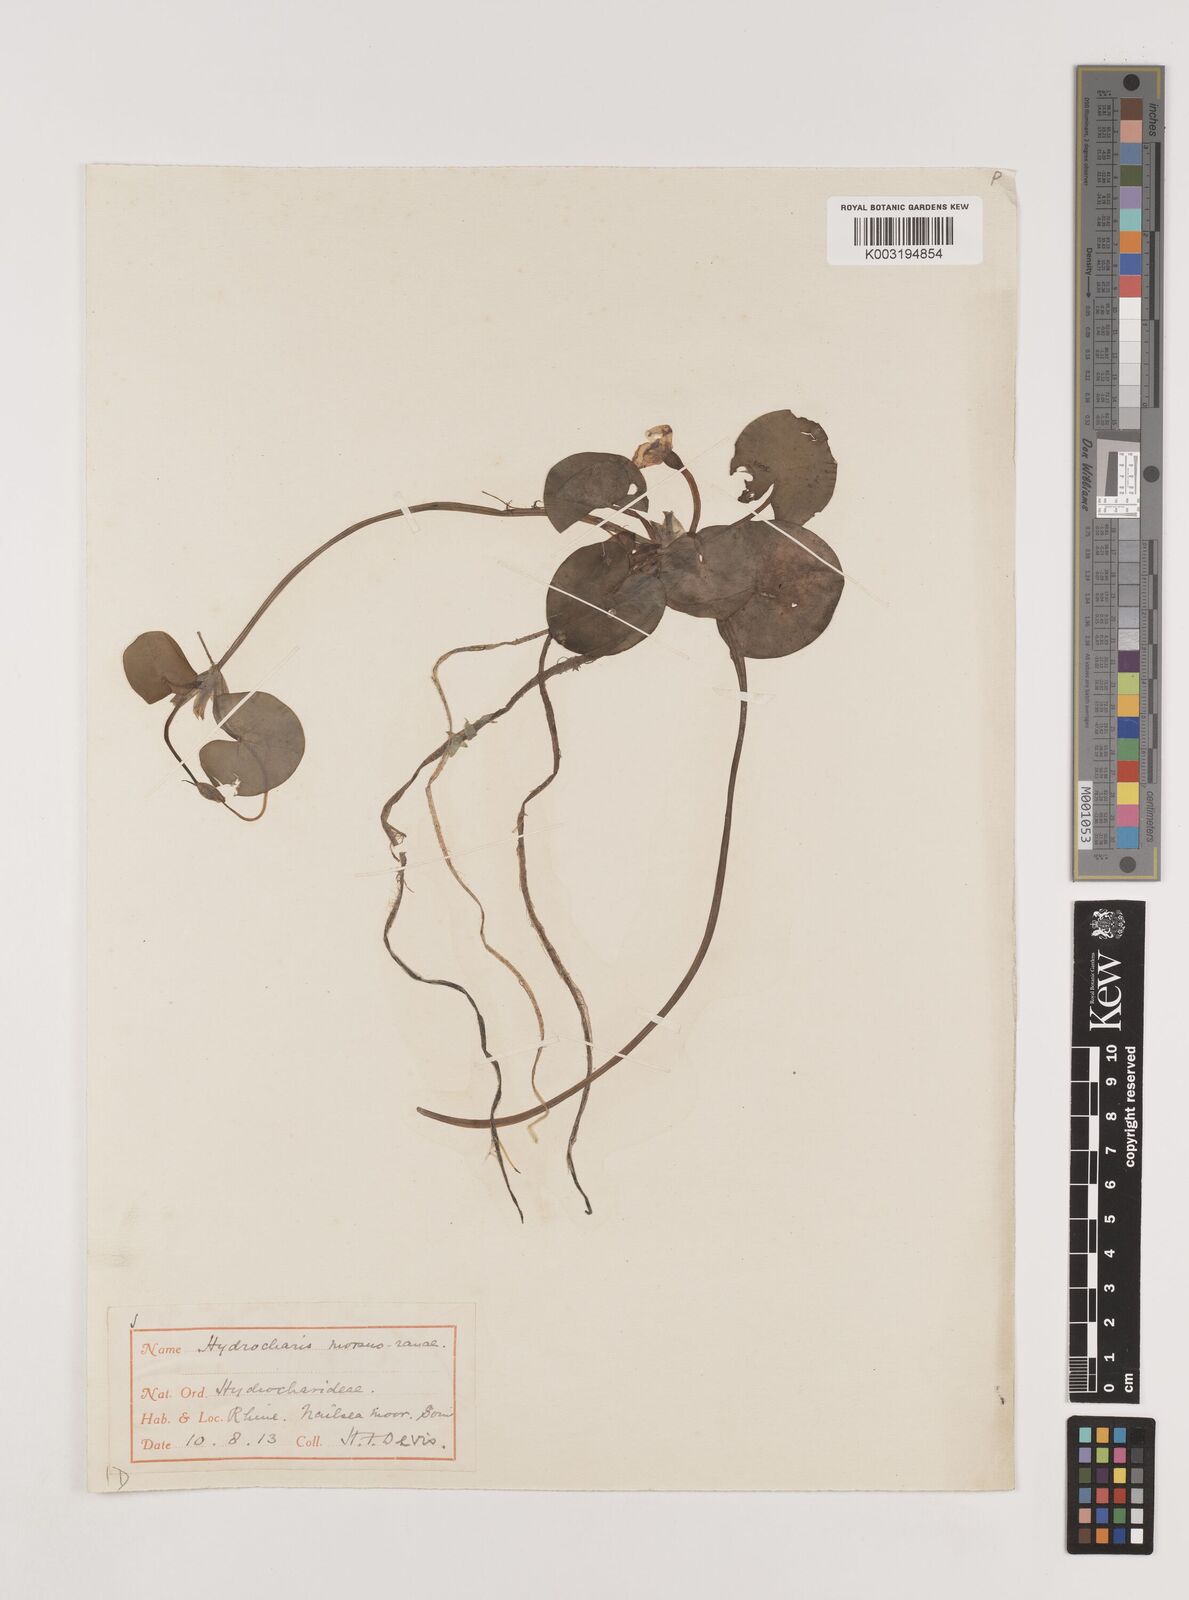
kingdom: Plantae
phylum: Tracheophyta
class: Liliopsida
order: Alismatales
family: Hydrocharitaceae
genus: Hydrocharis
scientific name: Hydrocharis morsus-ranae
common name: Frogbit
